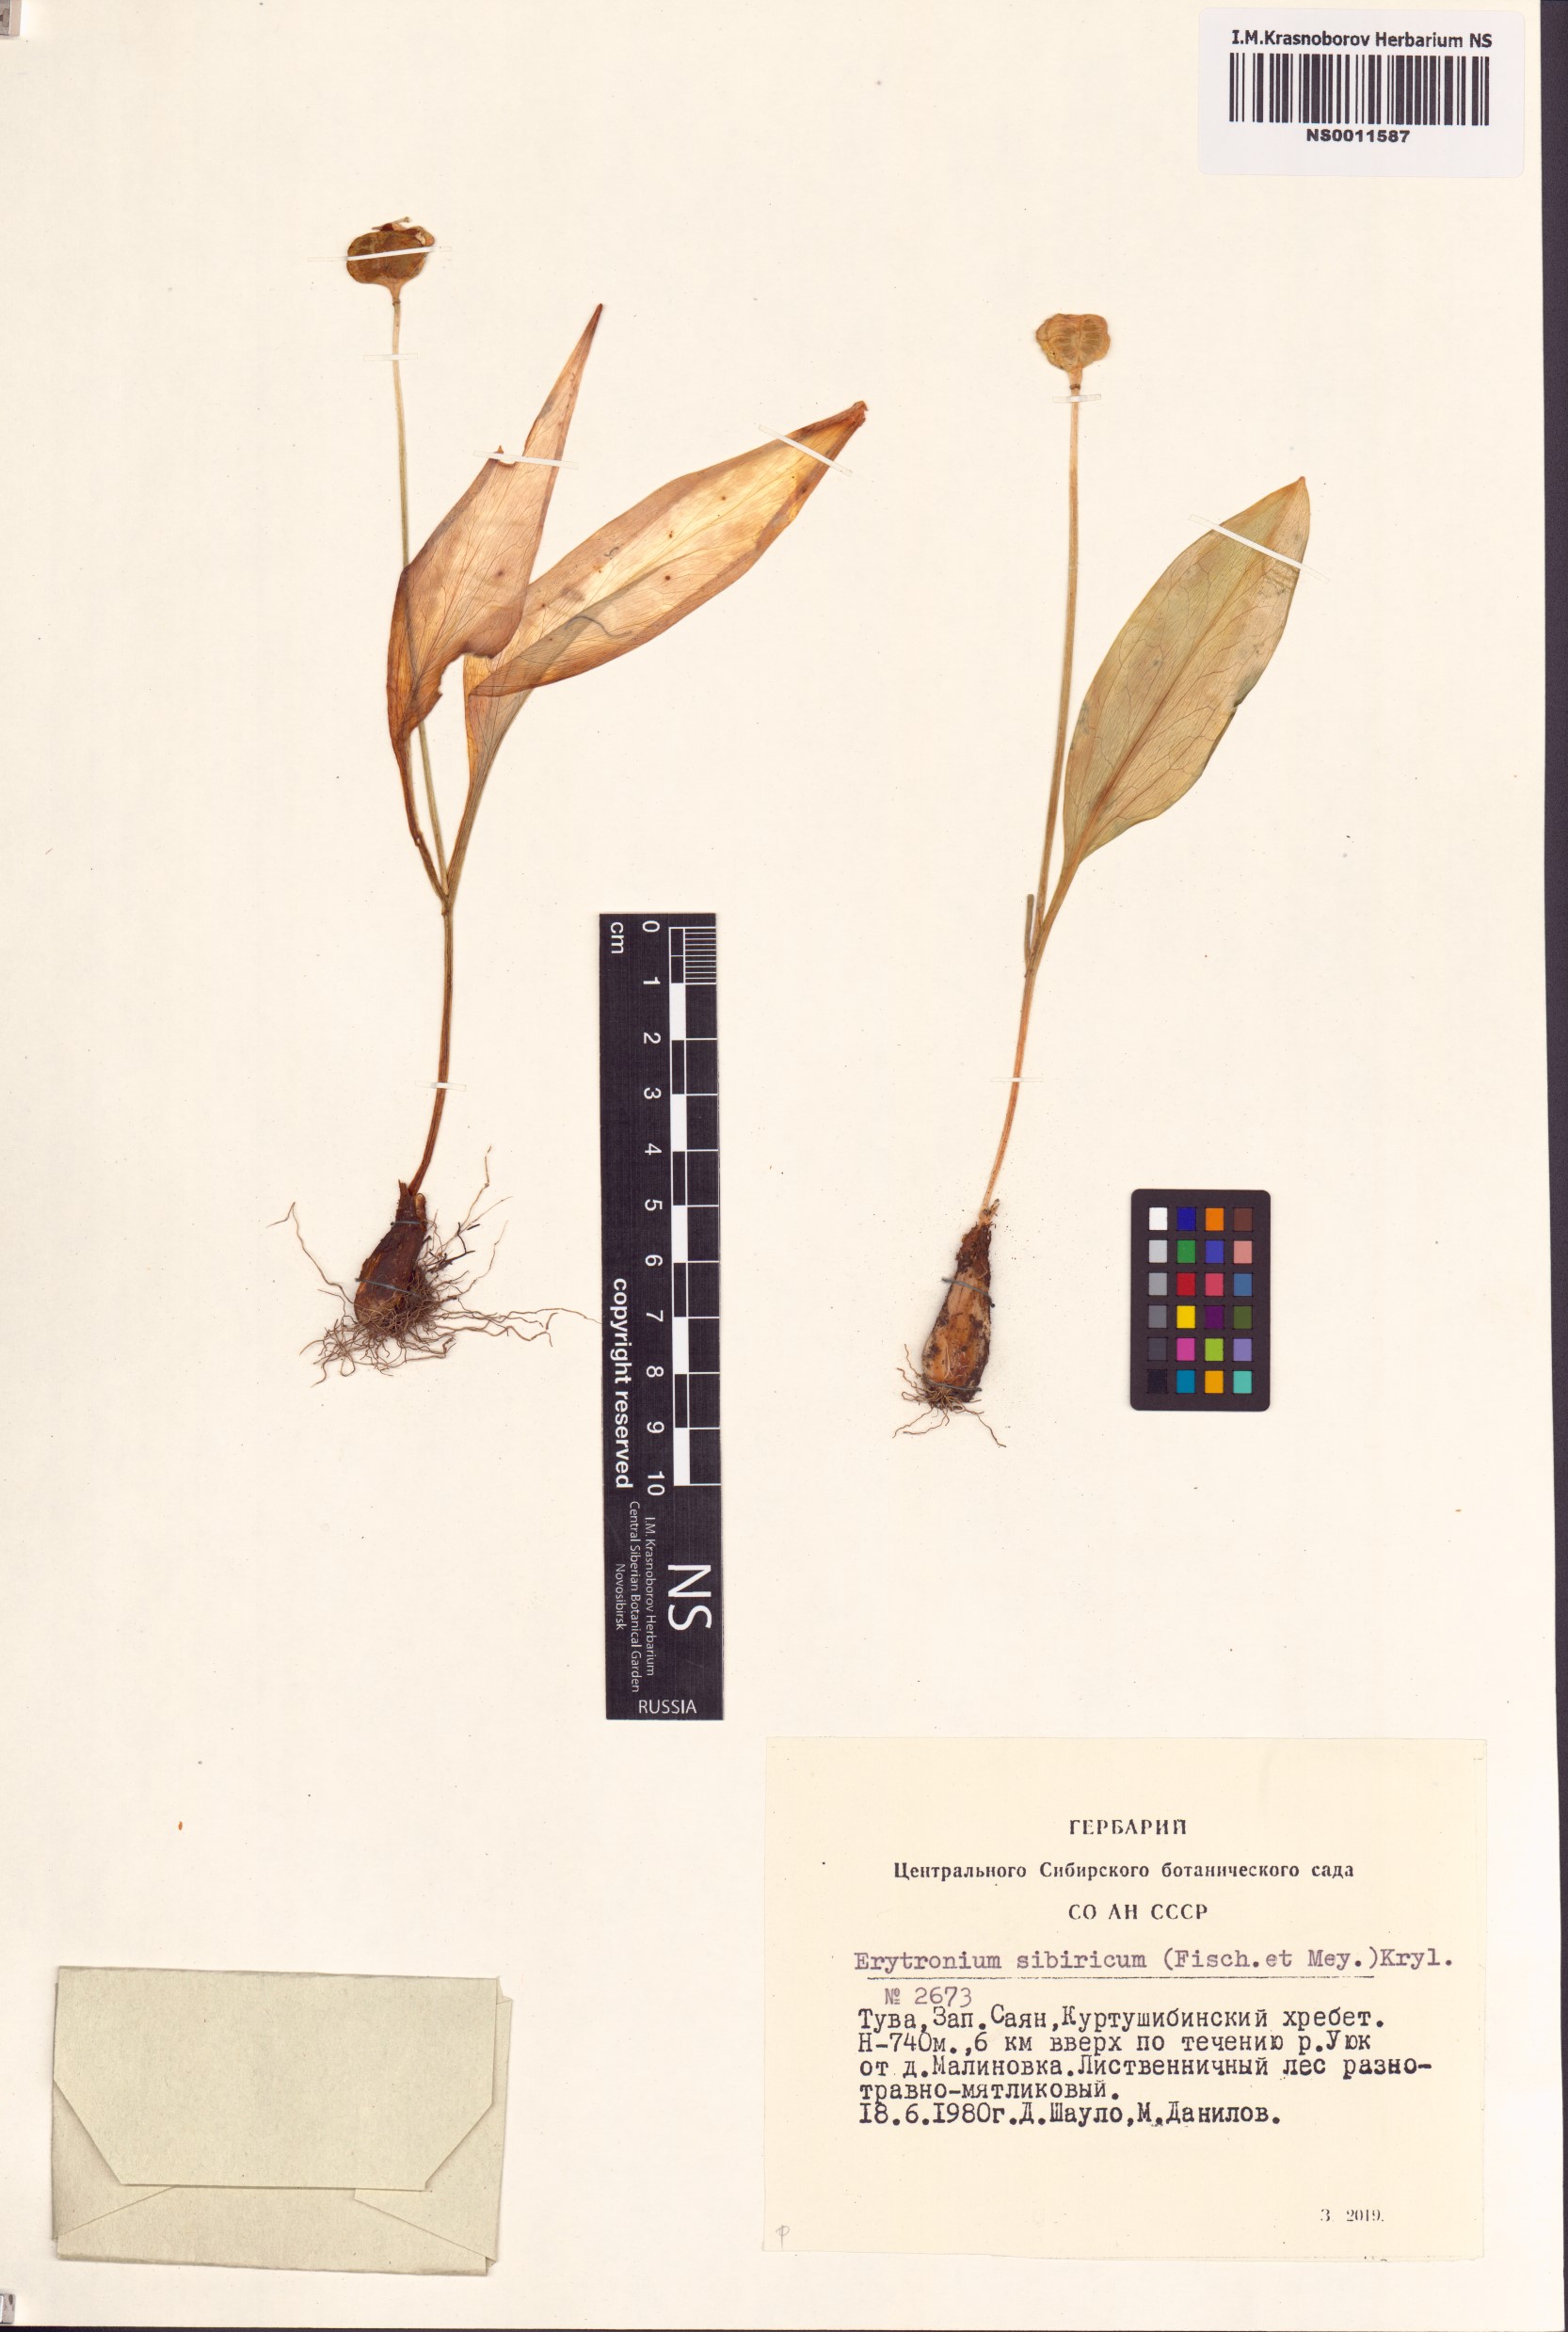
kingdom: Plantae
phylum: Tracheophyta
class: Liliopsida
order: Liliales
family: Liliaceae
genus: Erythronium
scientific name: Erythronium sibiricum
